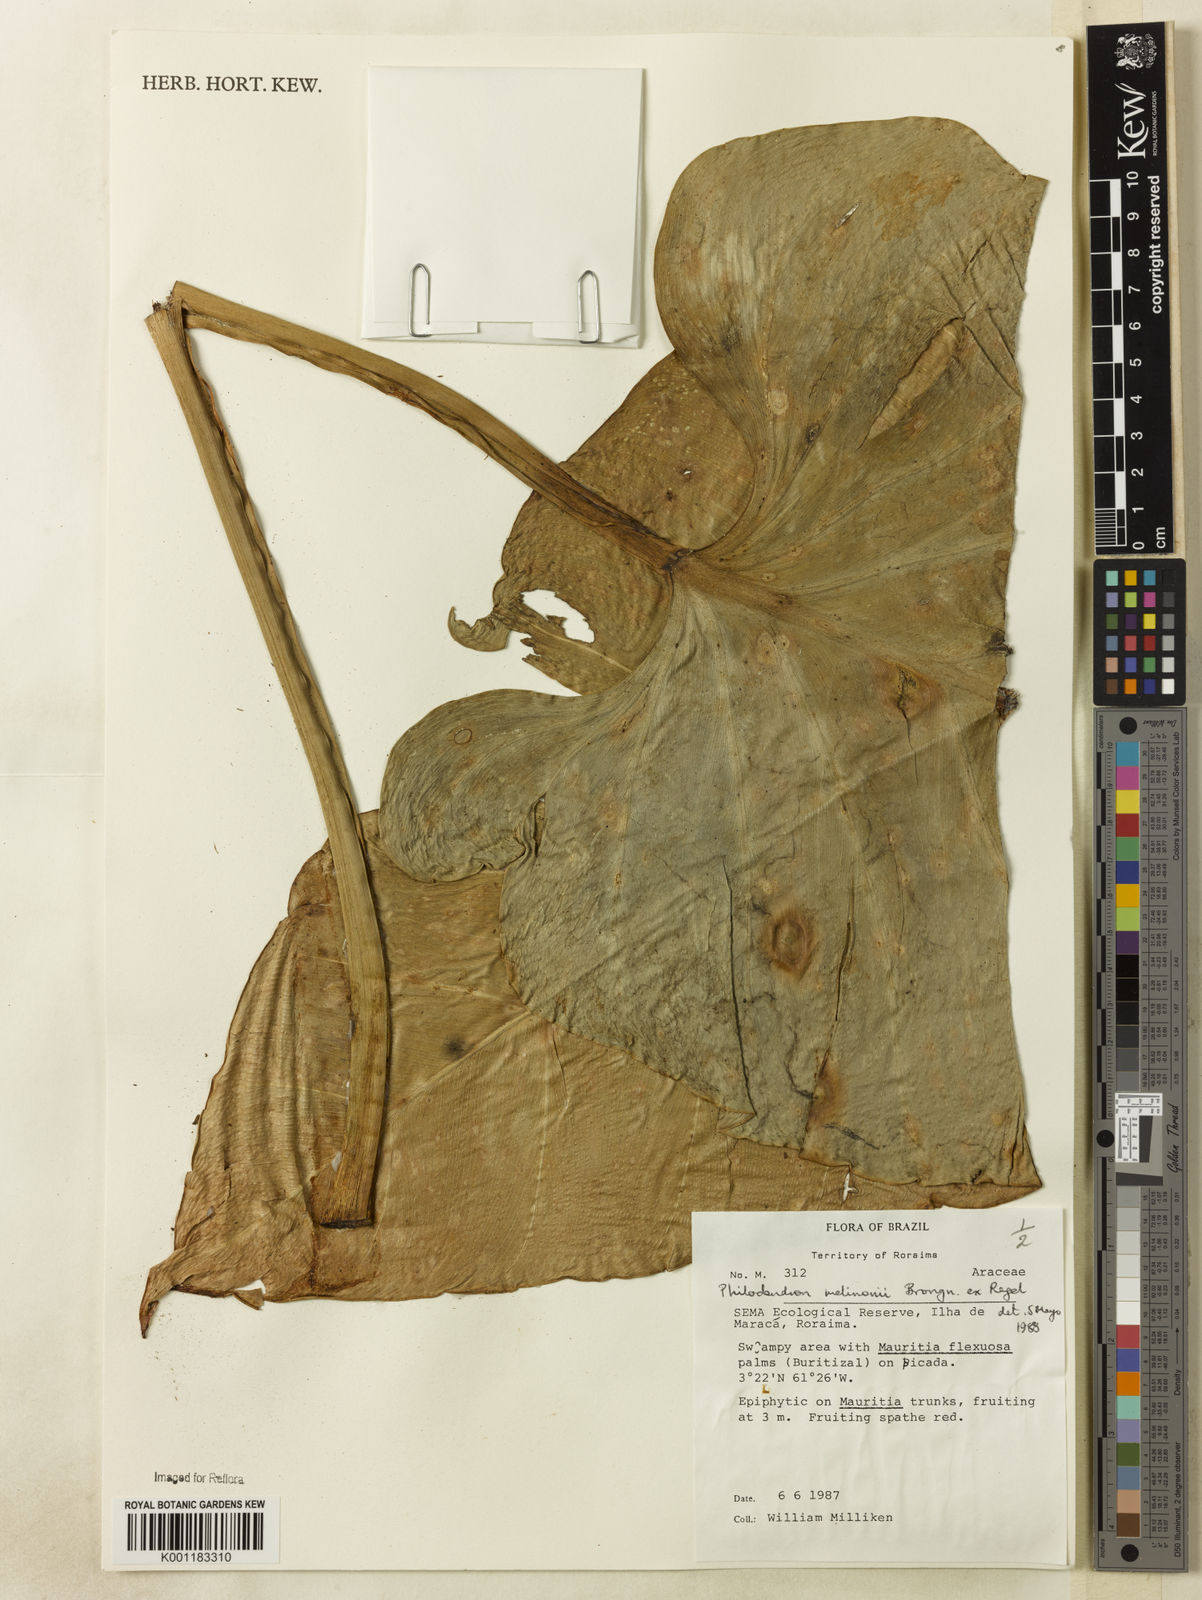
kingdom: Plantae
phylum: Tracheophyta
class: Liliopsida
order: Alismatales
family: Araceae
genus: Philodendron
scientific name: Philodendron melinonii
